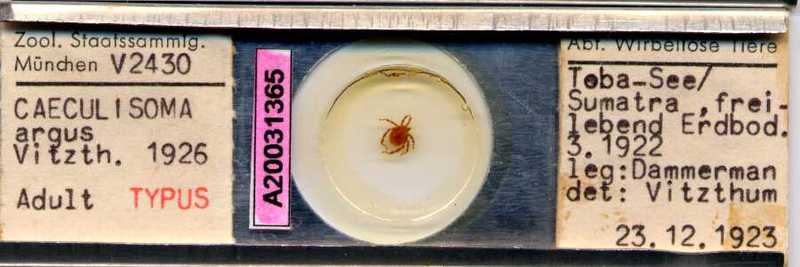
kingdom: Animalia
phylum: Arthropoda
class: Arachnida
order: Trombidiformes
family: Erythraeidae
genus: Caeculisoma
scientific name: Caeculisoma argus
